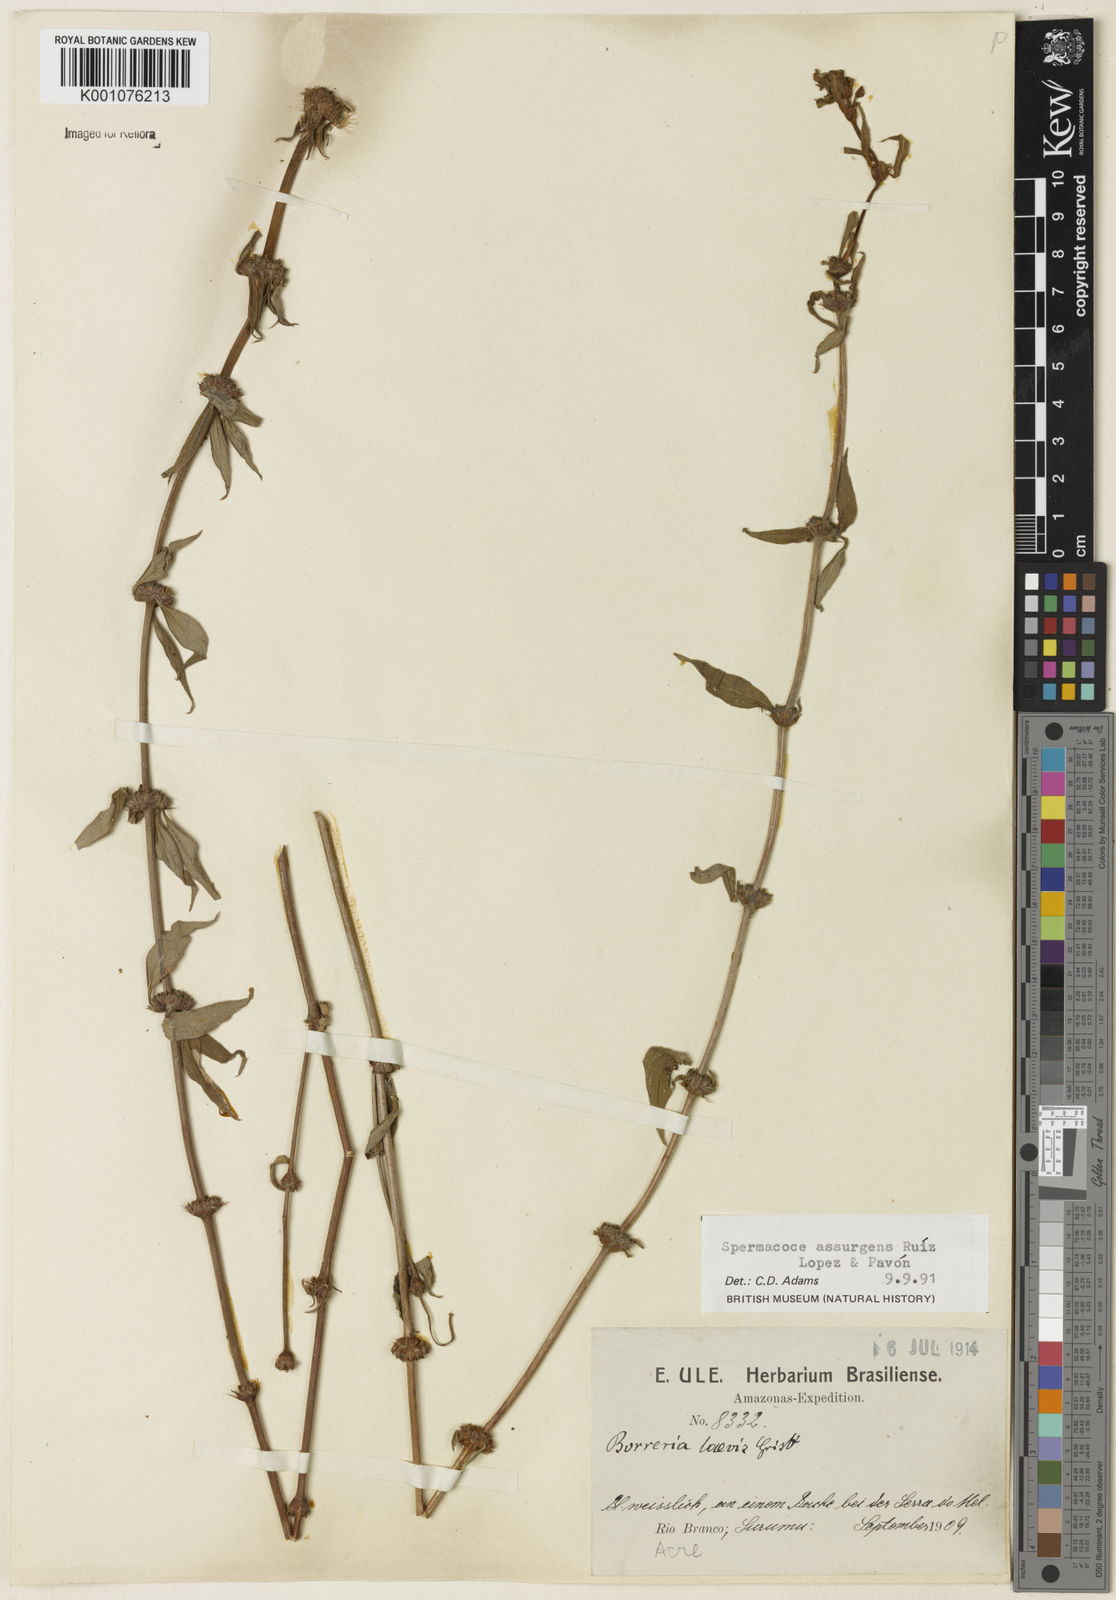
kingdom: Plantae
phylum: Tracheophyta
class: Magnoliopsida
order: Gentianales
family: Rubiaceae
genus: Spermacoce
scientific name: Spermacoce remota
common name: Woodland false buttonweed
